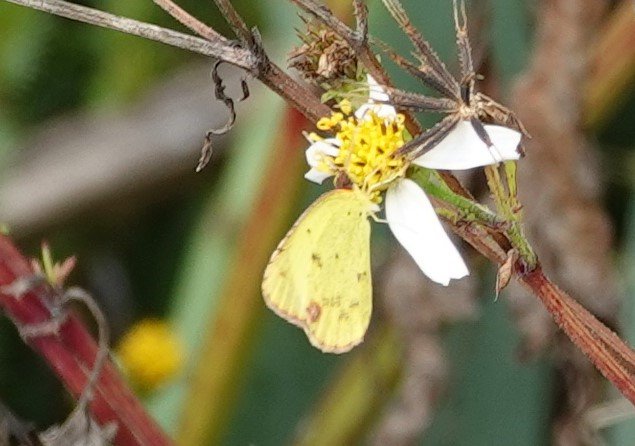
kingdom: Animalia
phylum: Arthropoda
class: Insecta
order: Lepidoptera
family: Pieridae
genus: Pyrisitia
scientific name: Pyrisitia lisa
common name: Little Yellow
